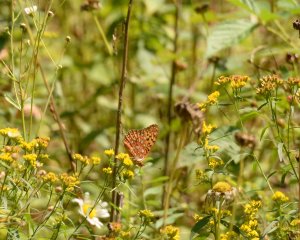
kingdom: Animalia
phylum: Arthropoda
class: Insecta
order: Lepidoptera
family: Nymphalidae
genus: Speyeria
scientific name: Speyeria aphrodite
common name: Aphrodite Fritillary
